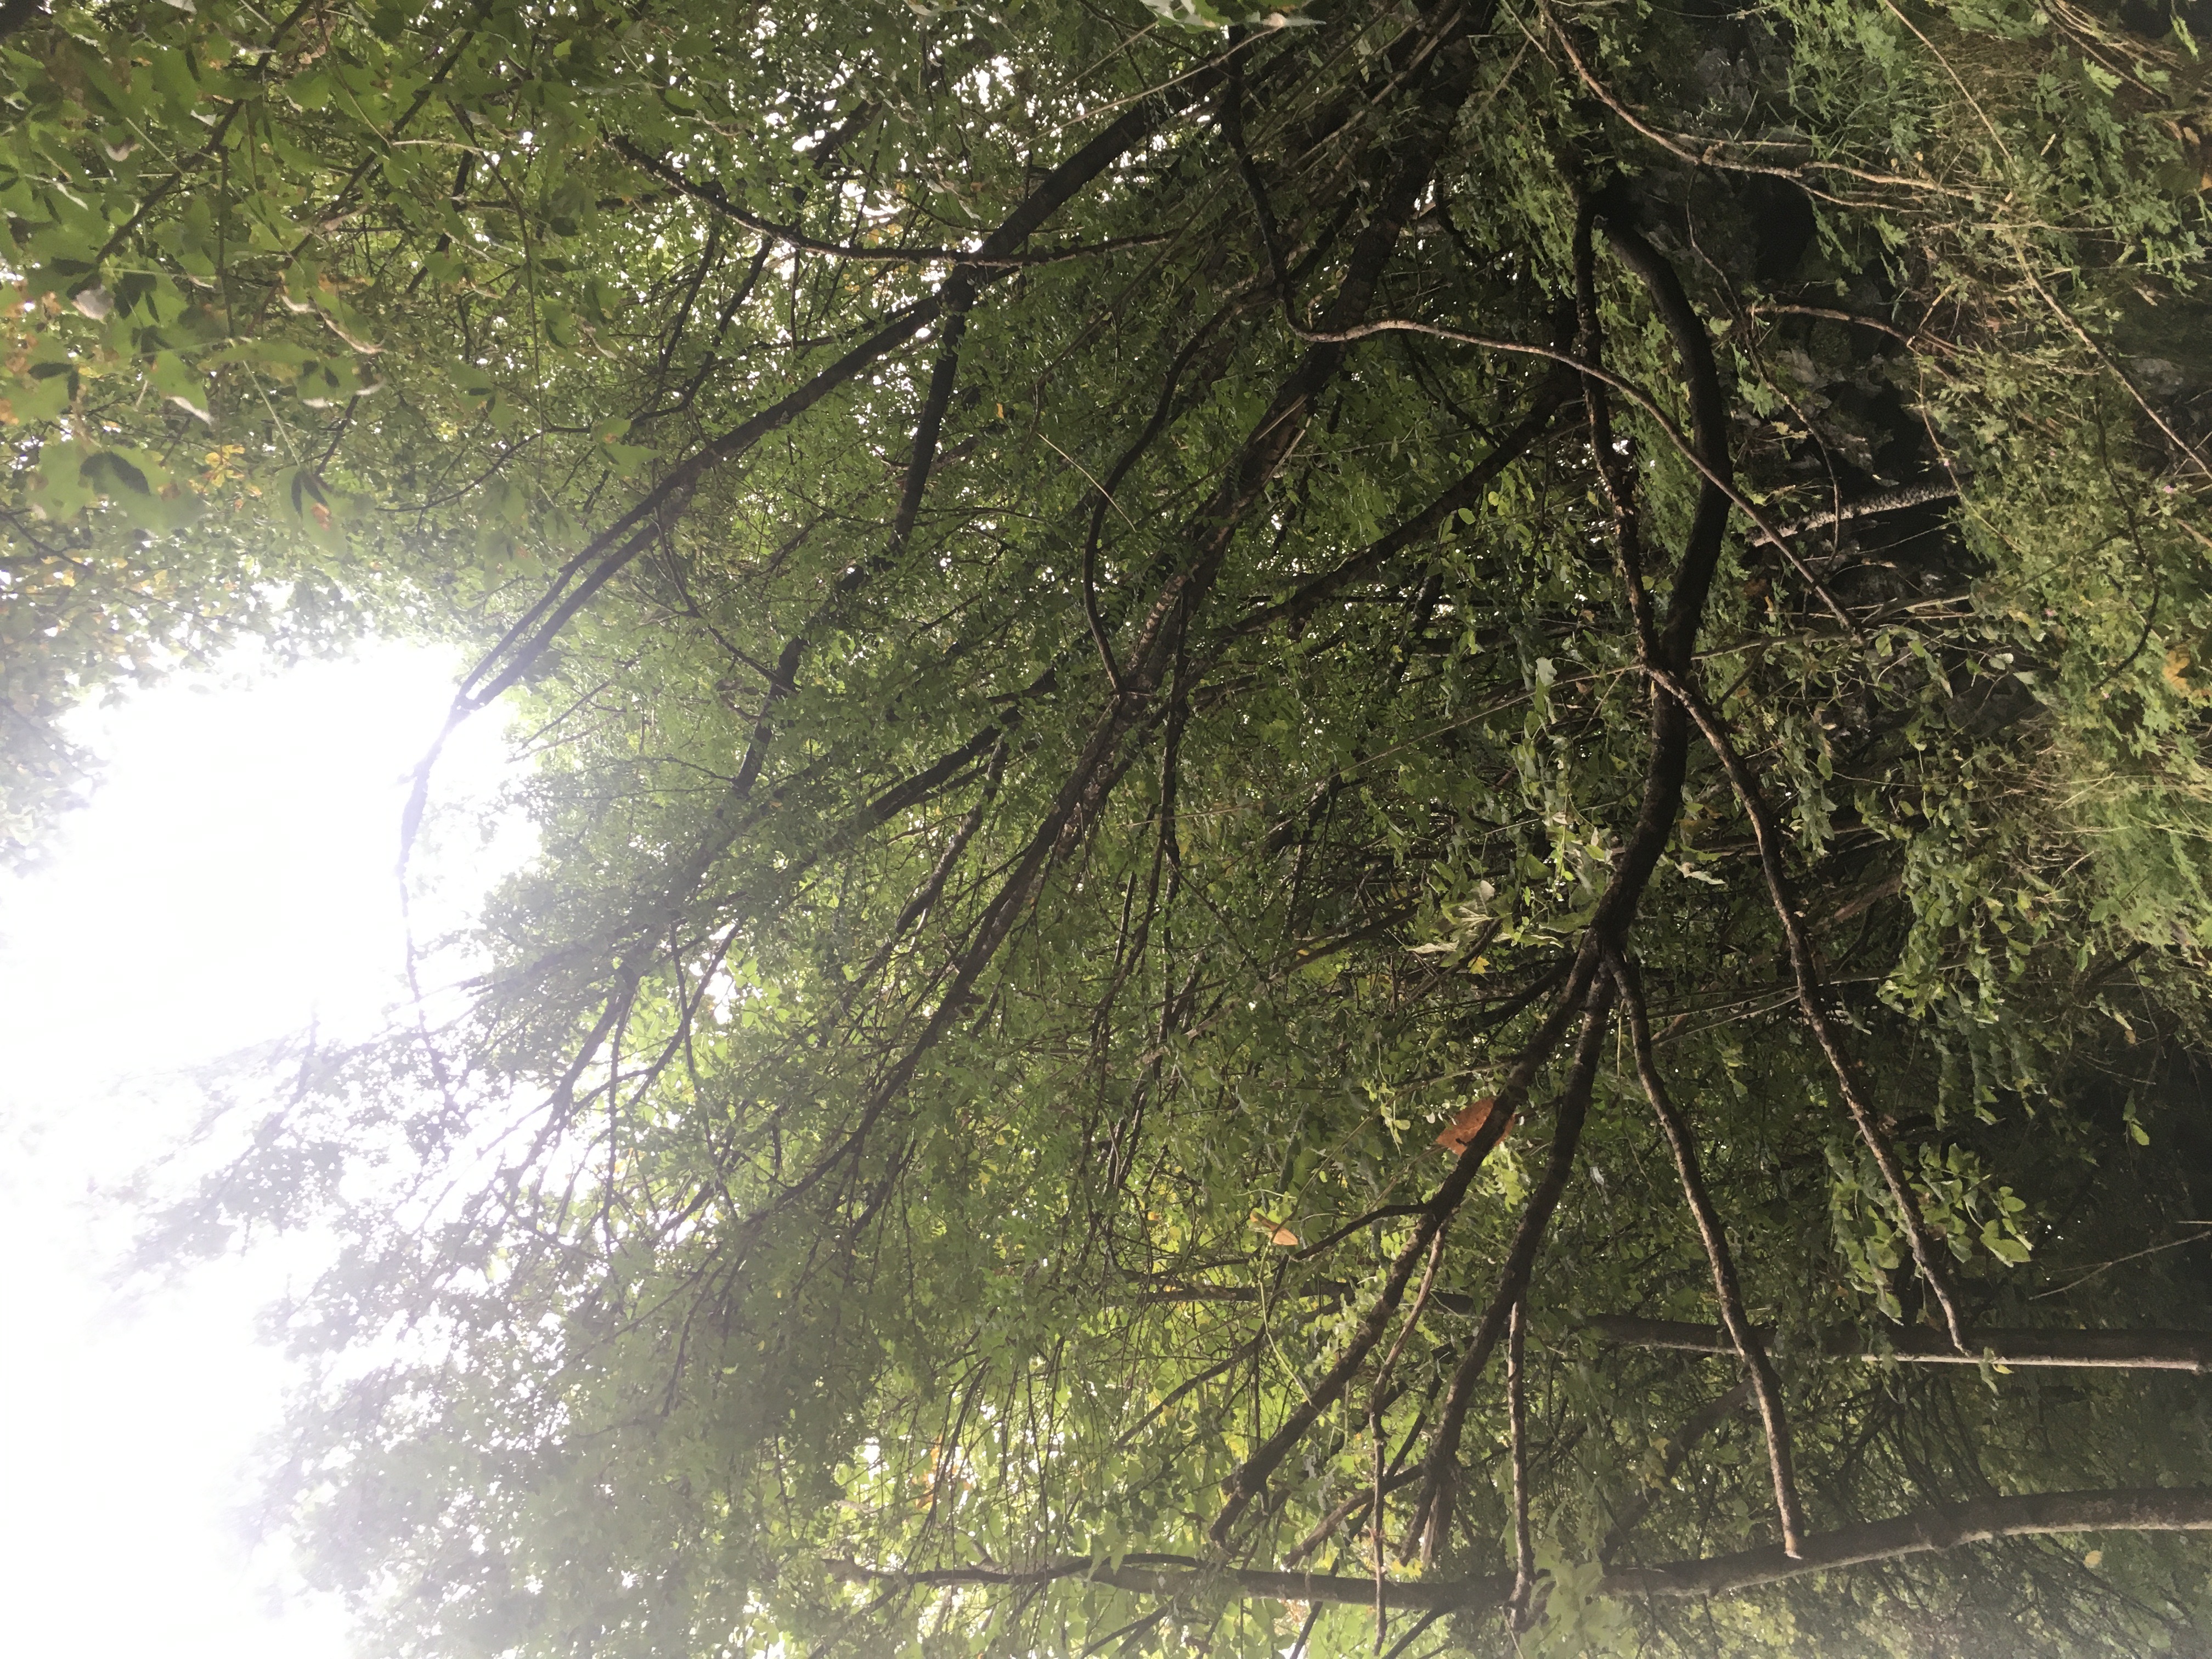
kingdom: Plantae
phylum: Tracheophyta
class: Magnoliopsida
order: Fabales
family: Fabaceae
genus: Caragana
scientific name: Caragana arborescens
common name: sibirertebusk
